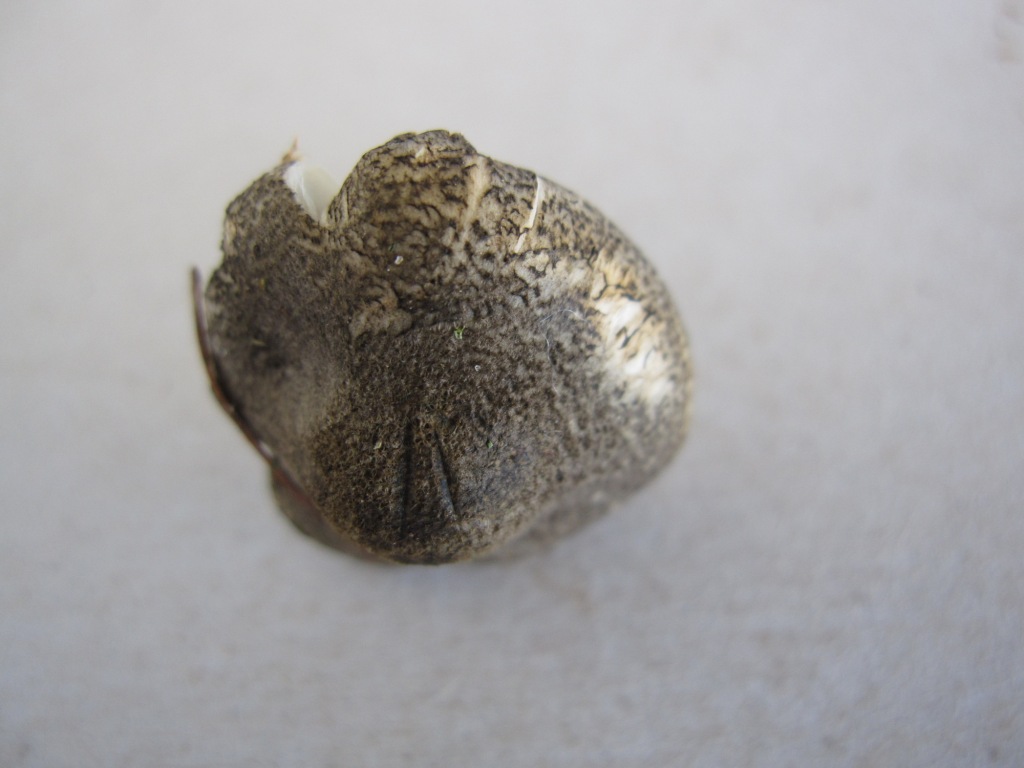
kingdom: Fungi
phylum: Basidiomycota
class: Agaricomycetes
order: Agaricales
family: Agaricaceae
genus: Lepiota
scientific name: Lepiota griseovirens
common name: grågrøn parasolhat
